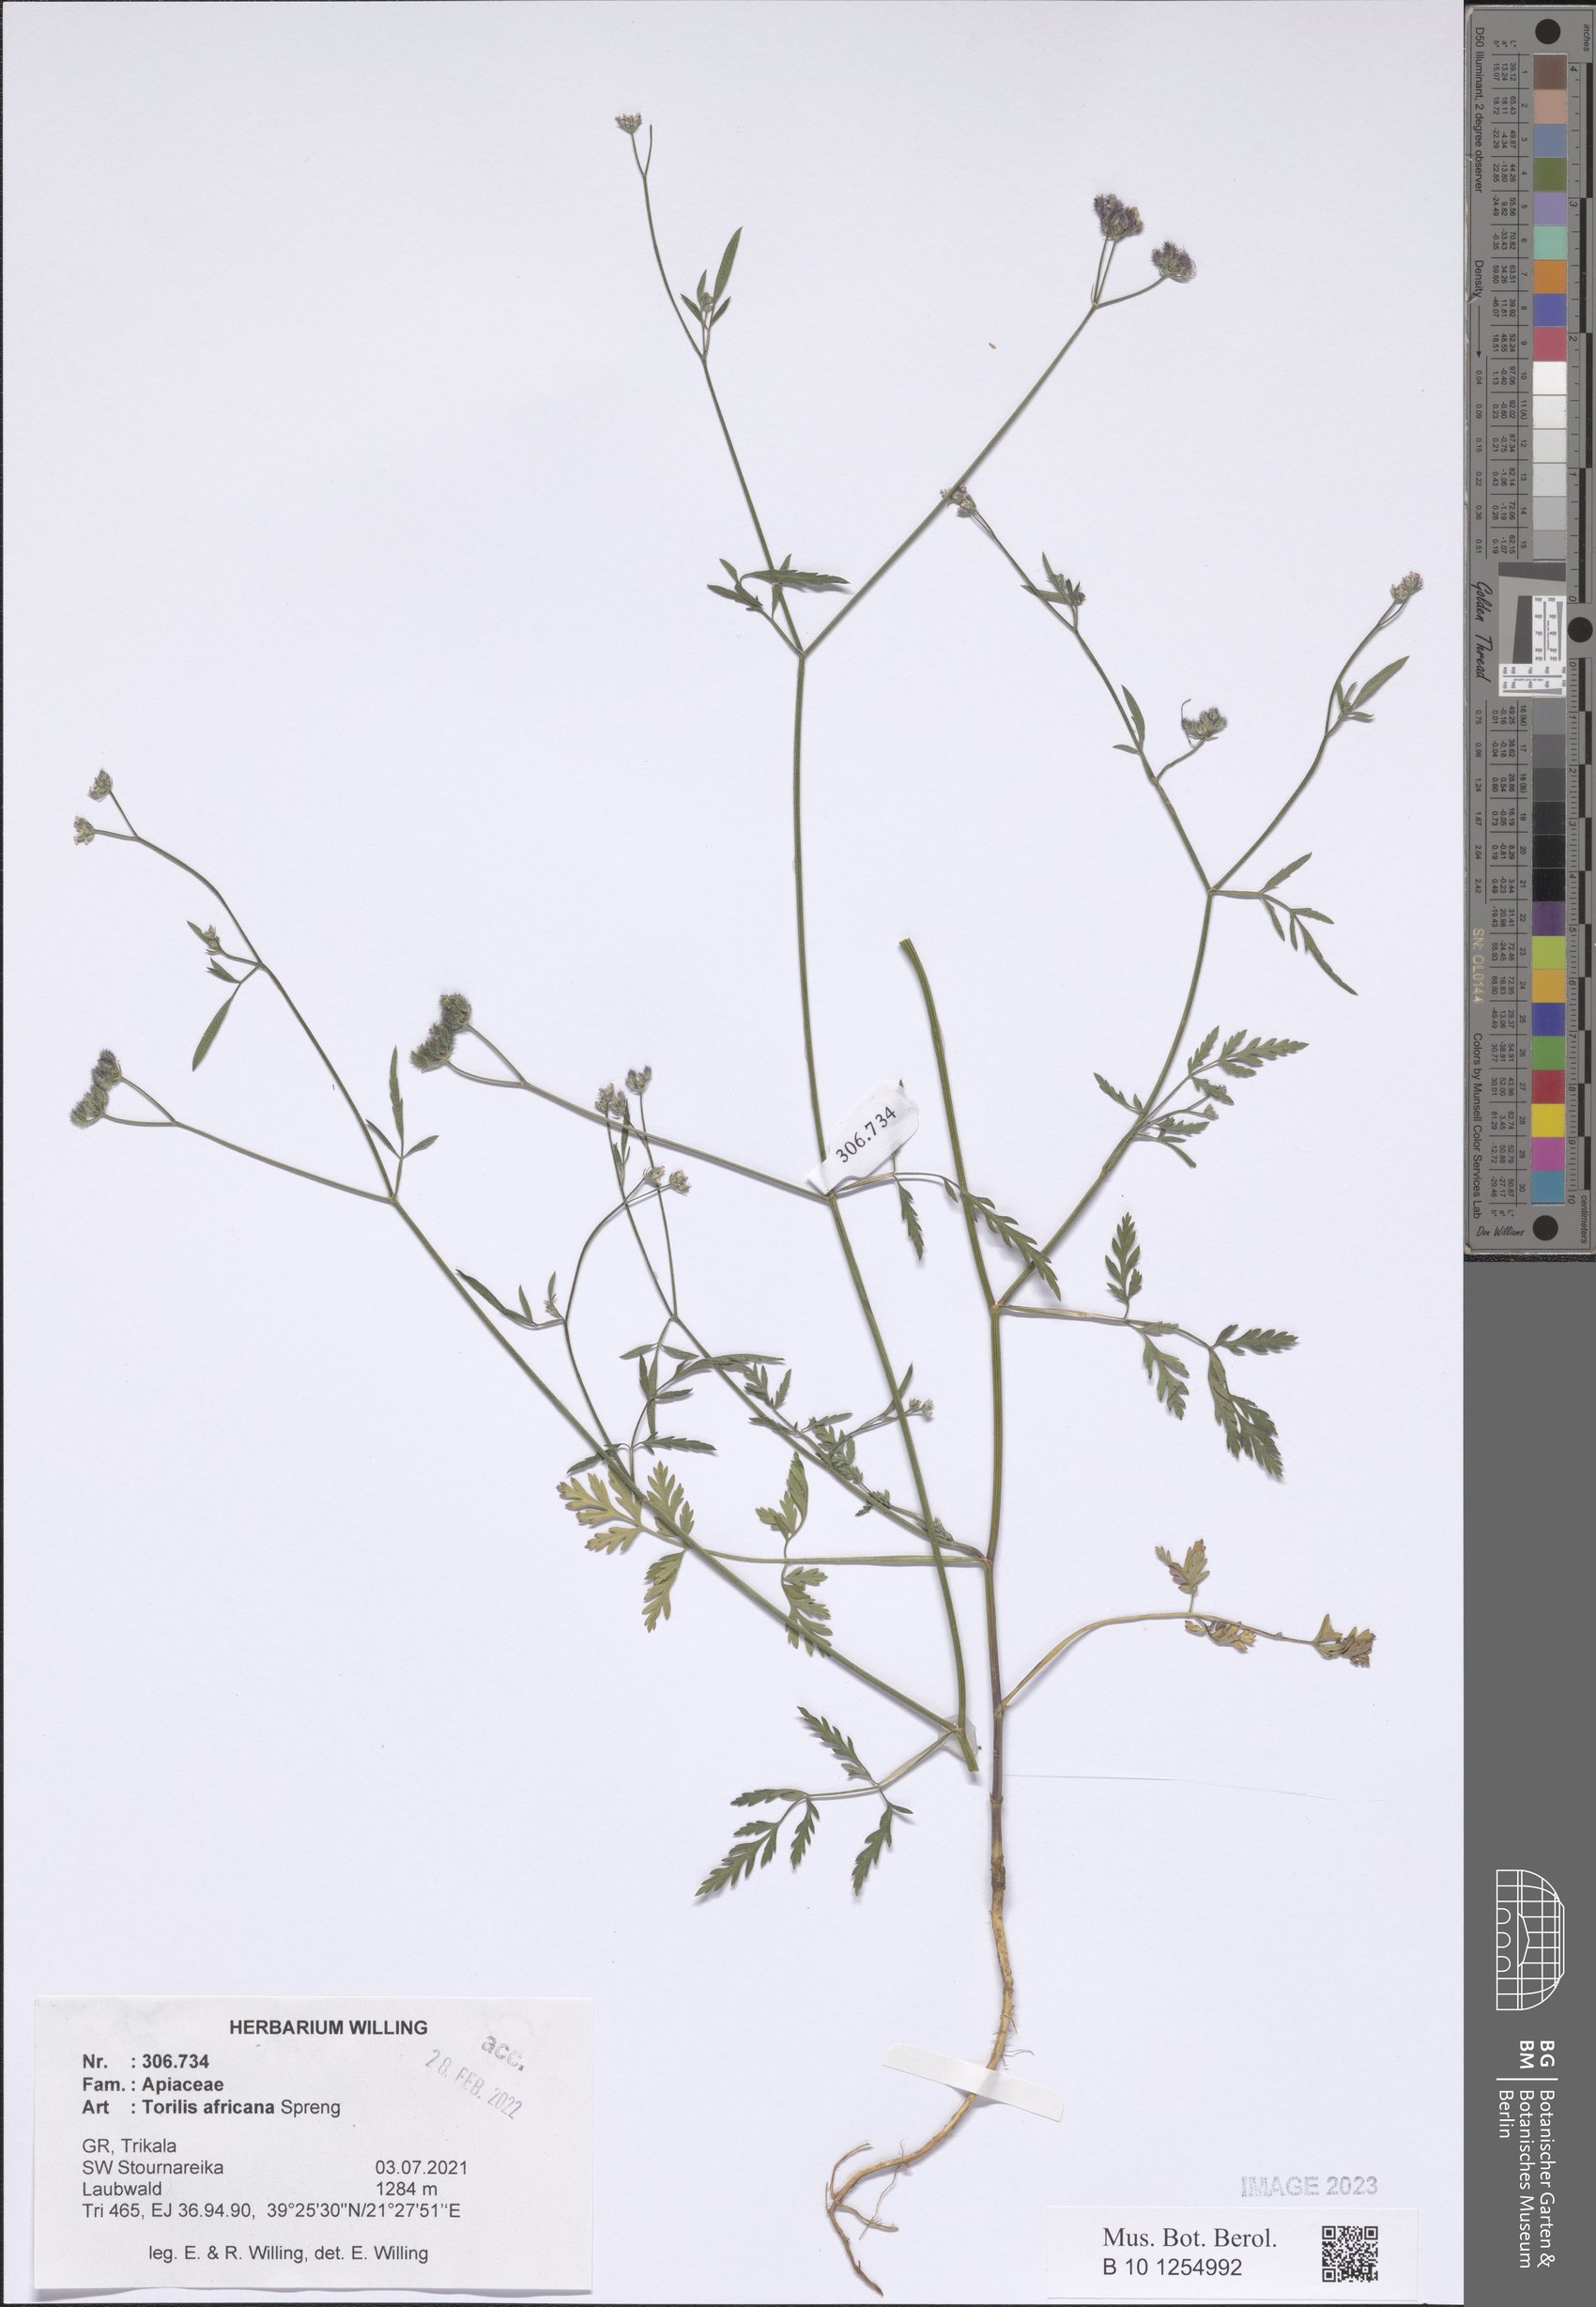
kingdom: Plantae
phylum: Tracheophyta
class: Magnoliopsida
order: Apiales
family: Apiaceae
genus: Torilis
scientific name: Torilis africana
